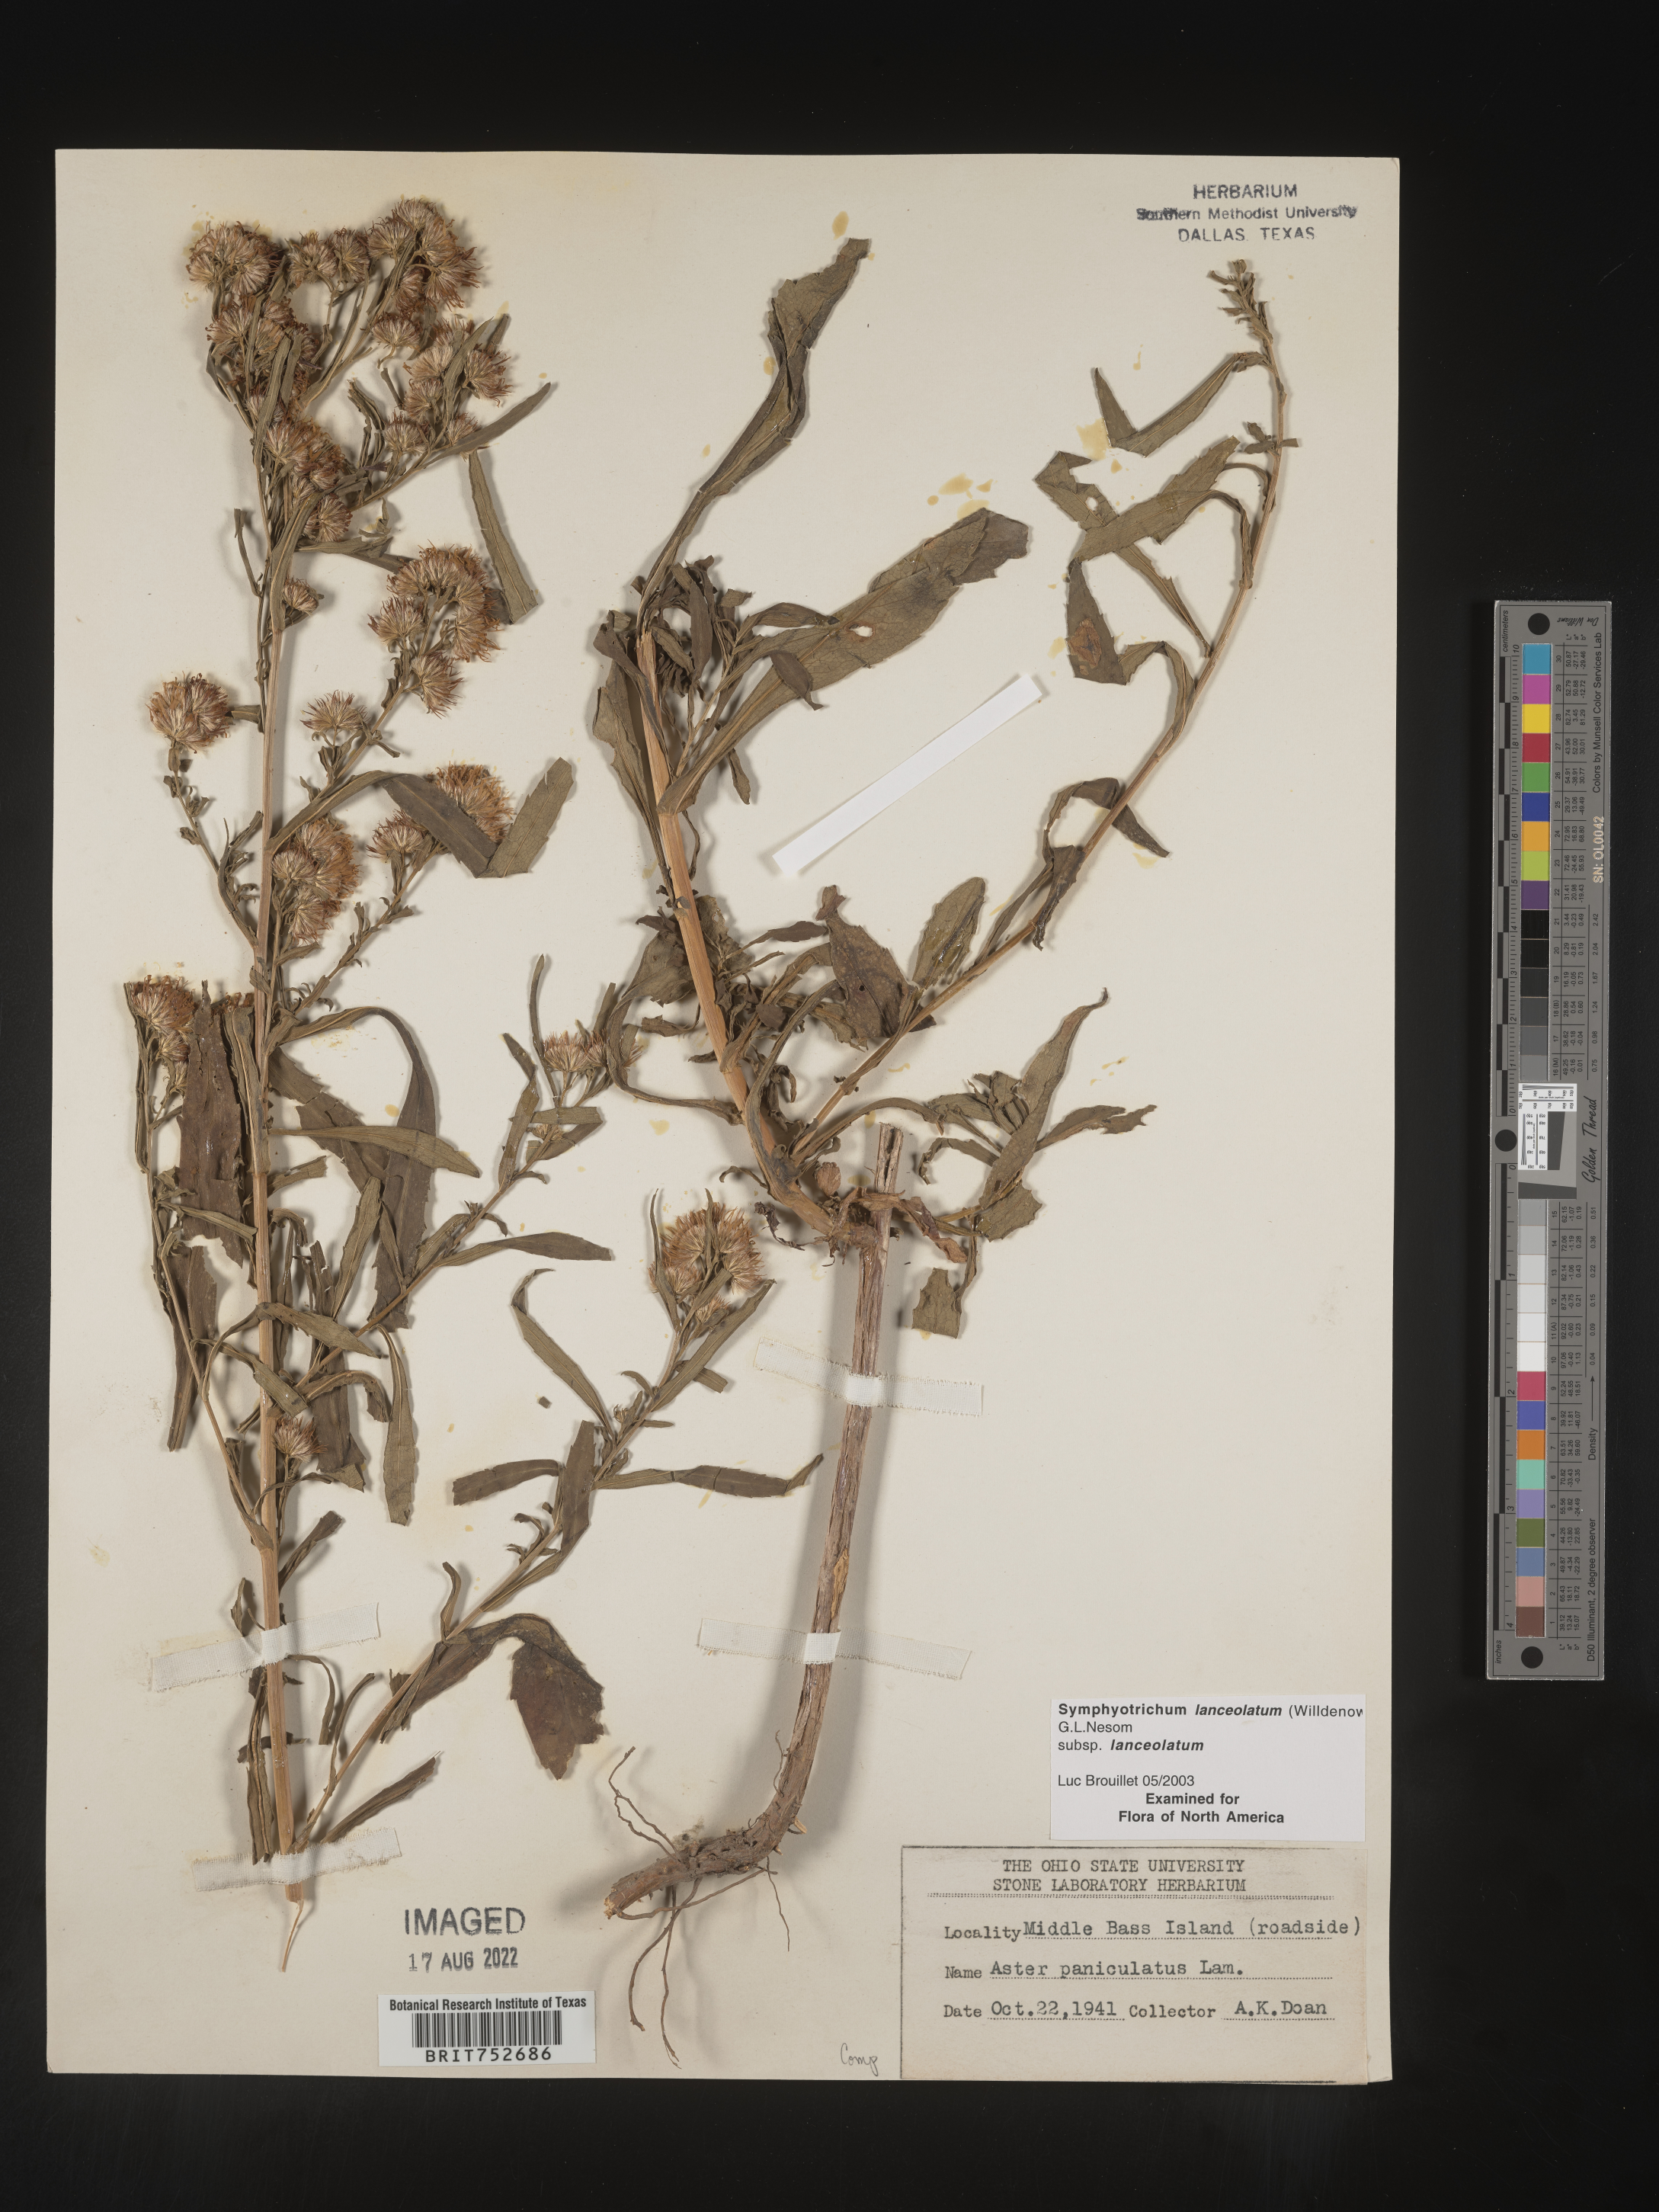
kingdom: Plantae
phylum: Tracheophyta
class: Magnoliopsida
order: Asterales
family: Asteraceae
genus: Symphyotrichum
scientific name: Symphyotrichum lanceolatum
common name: Panicled aster
